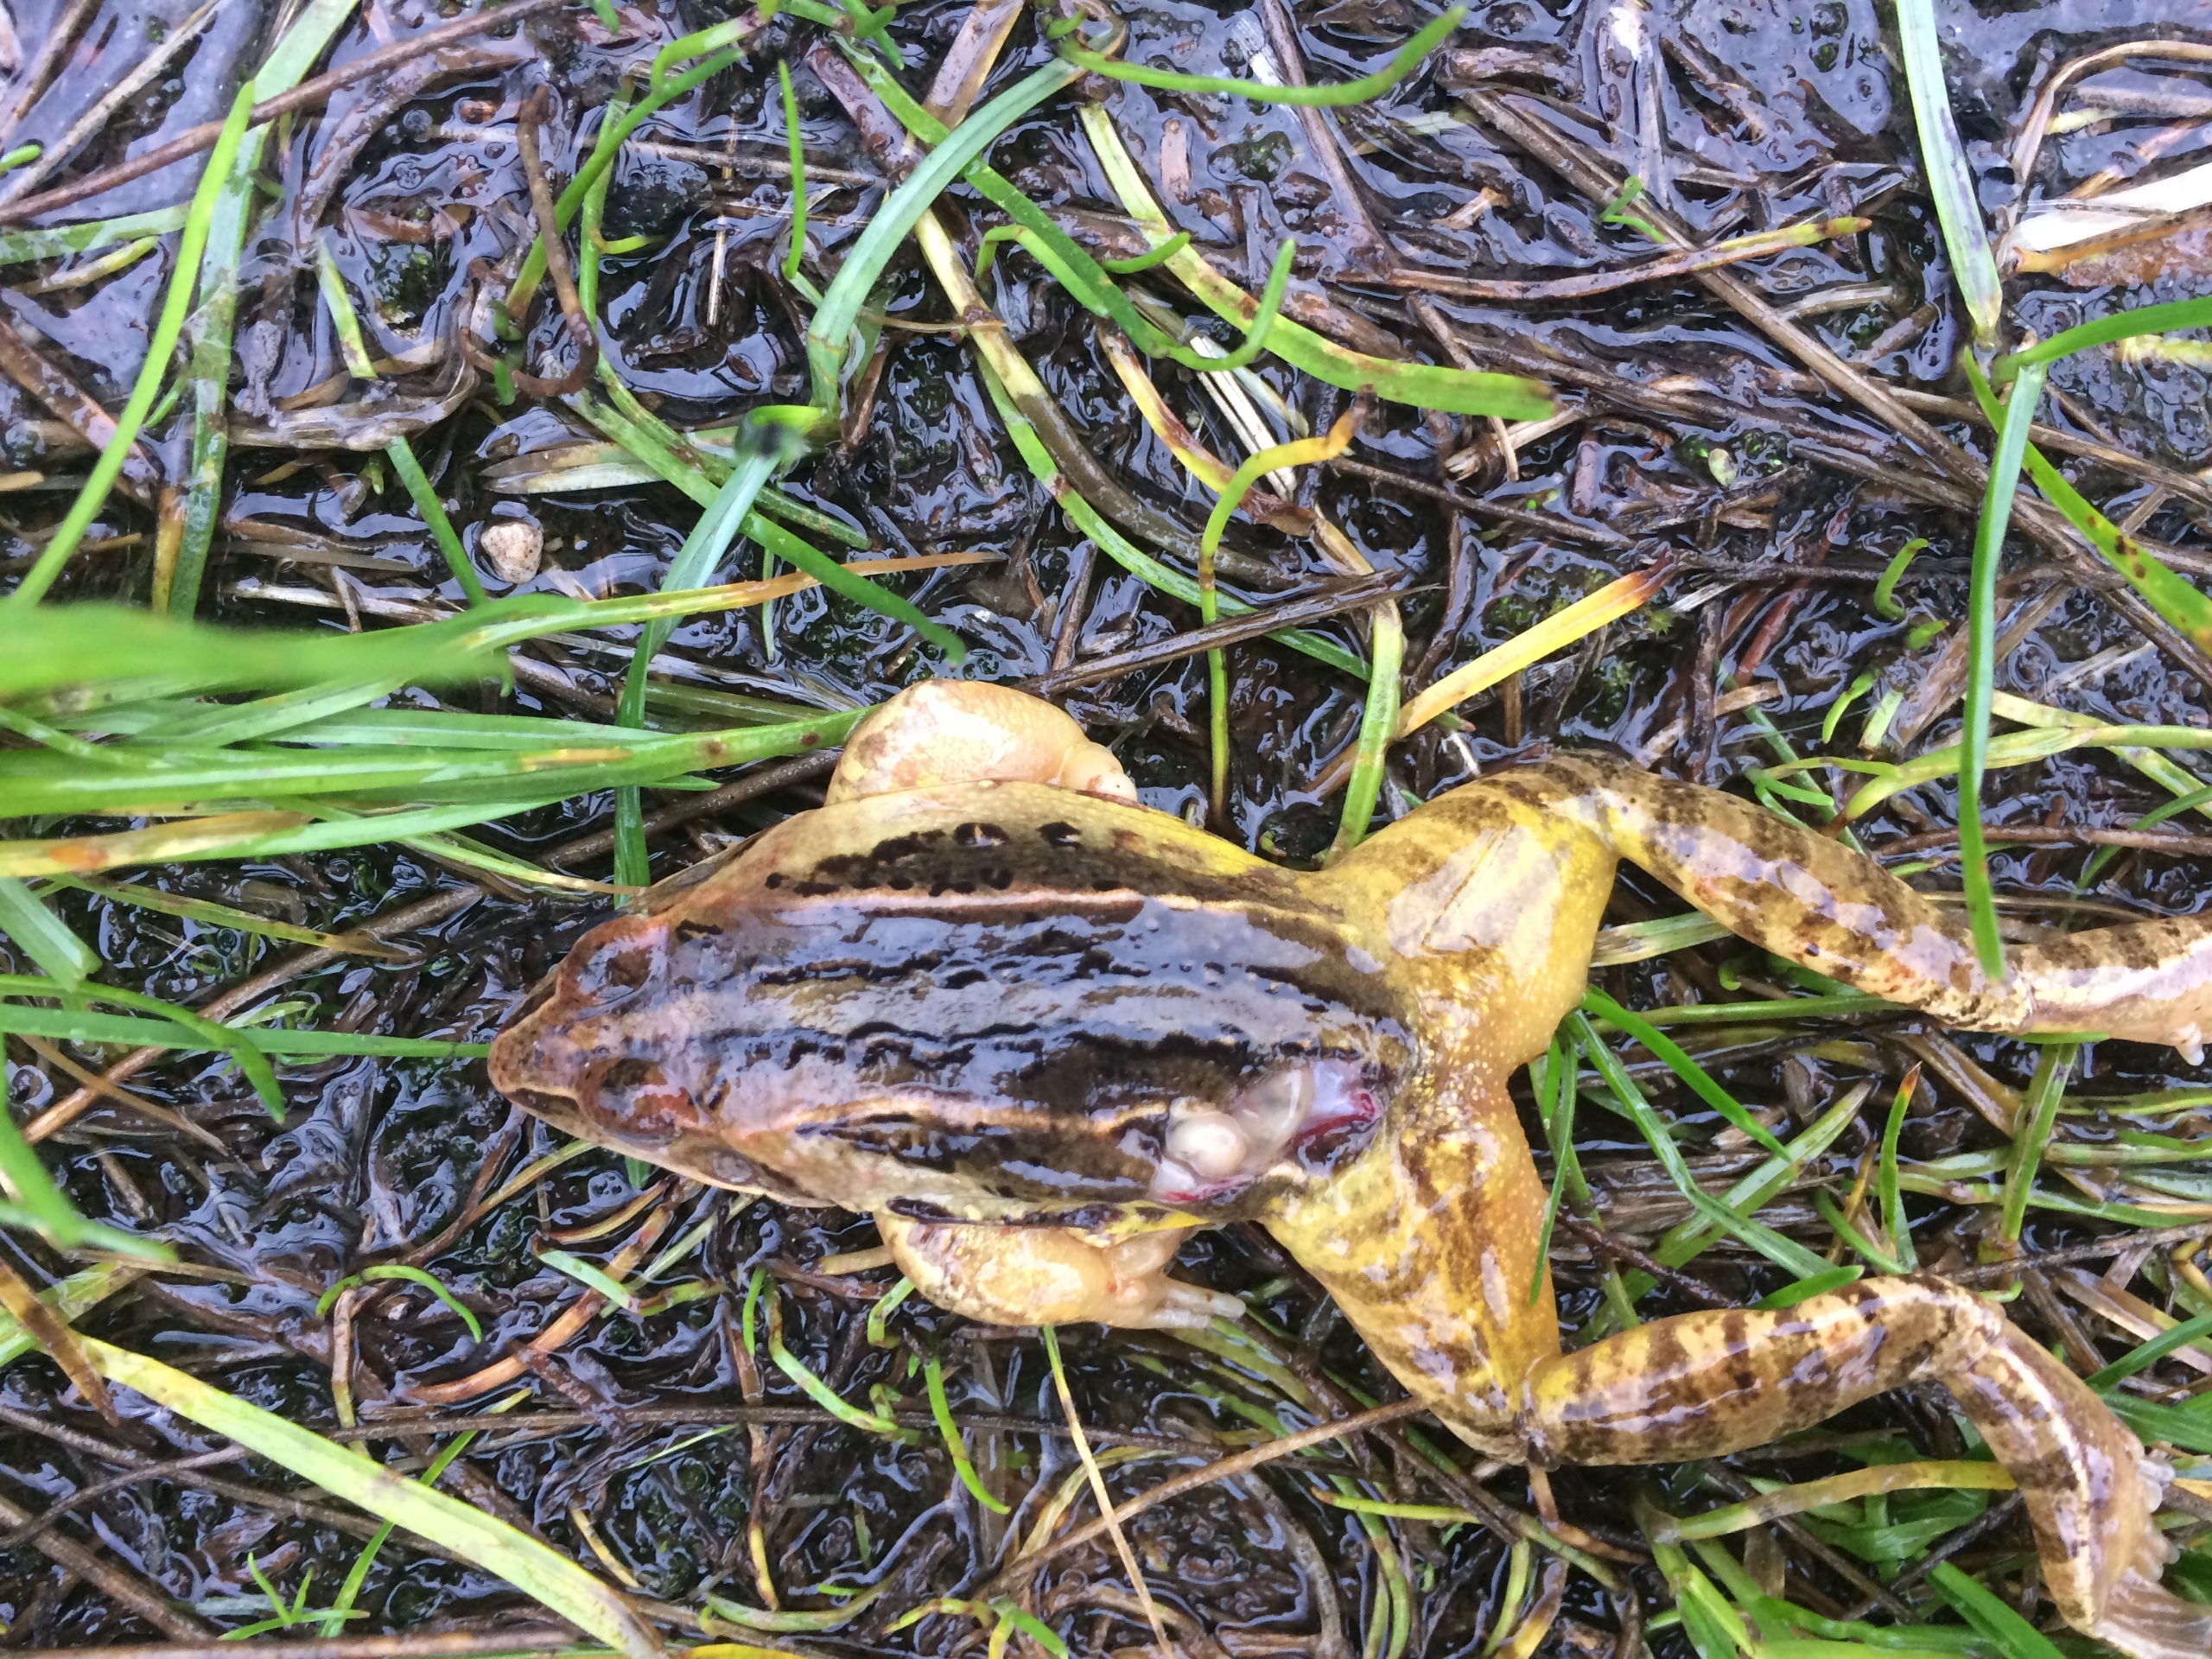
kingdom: Animalia
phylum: Chordata
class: Amphibia
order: Anura
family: Ranidae
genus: Rana
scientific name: Rana arvalis
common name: Spidssnudet frø
